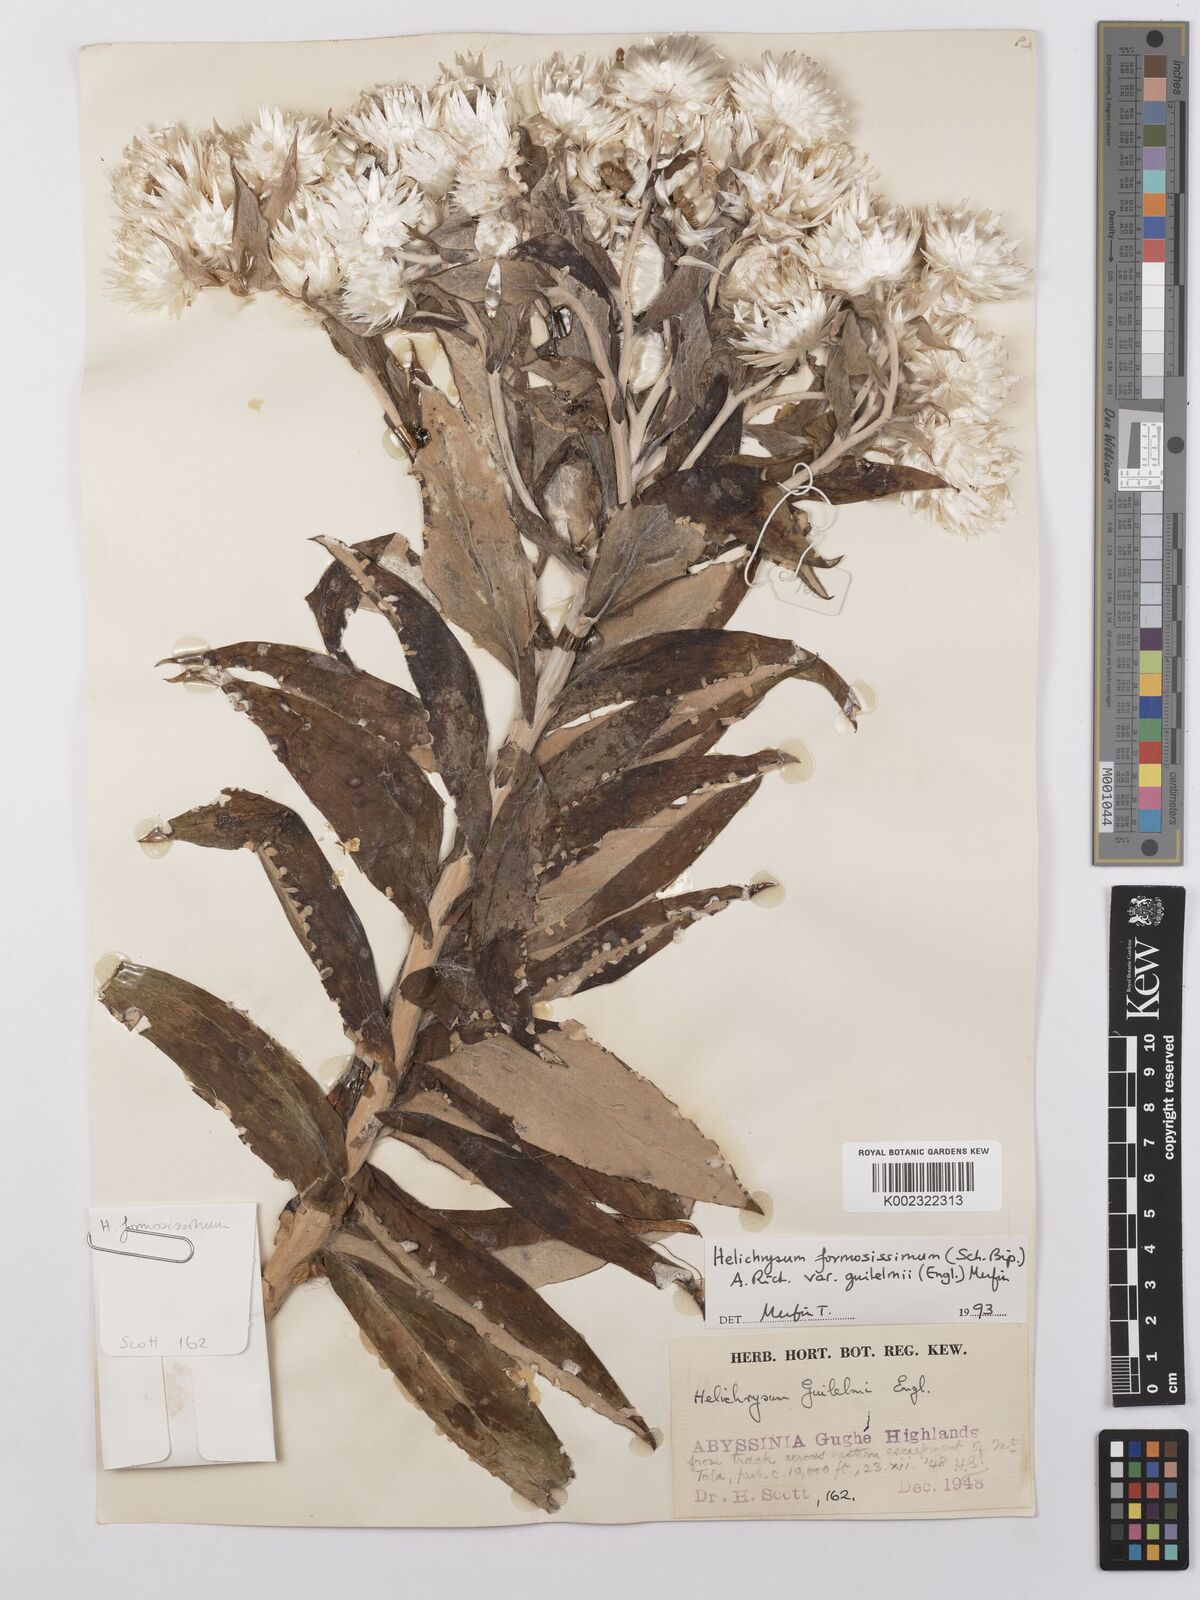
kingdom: Plantae
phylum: Tracheophyta
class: Magnoliopsida
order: Asterales
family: Asteraceae
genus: Helichrysum
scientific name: Helichrysum formosissimum
